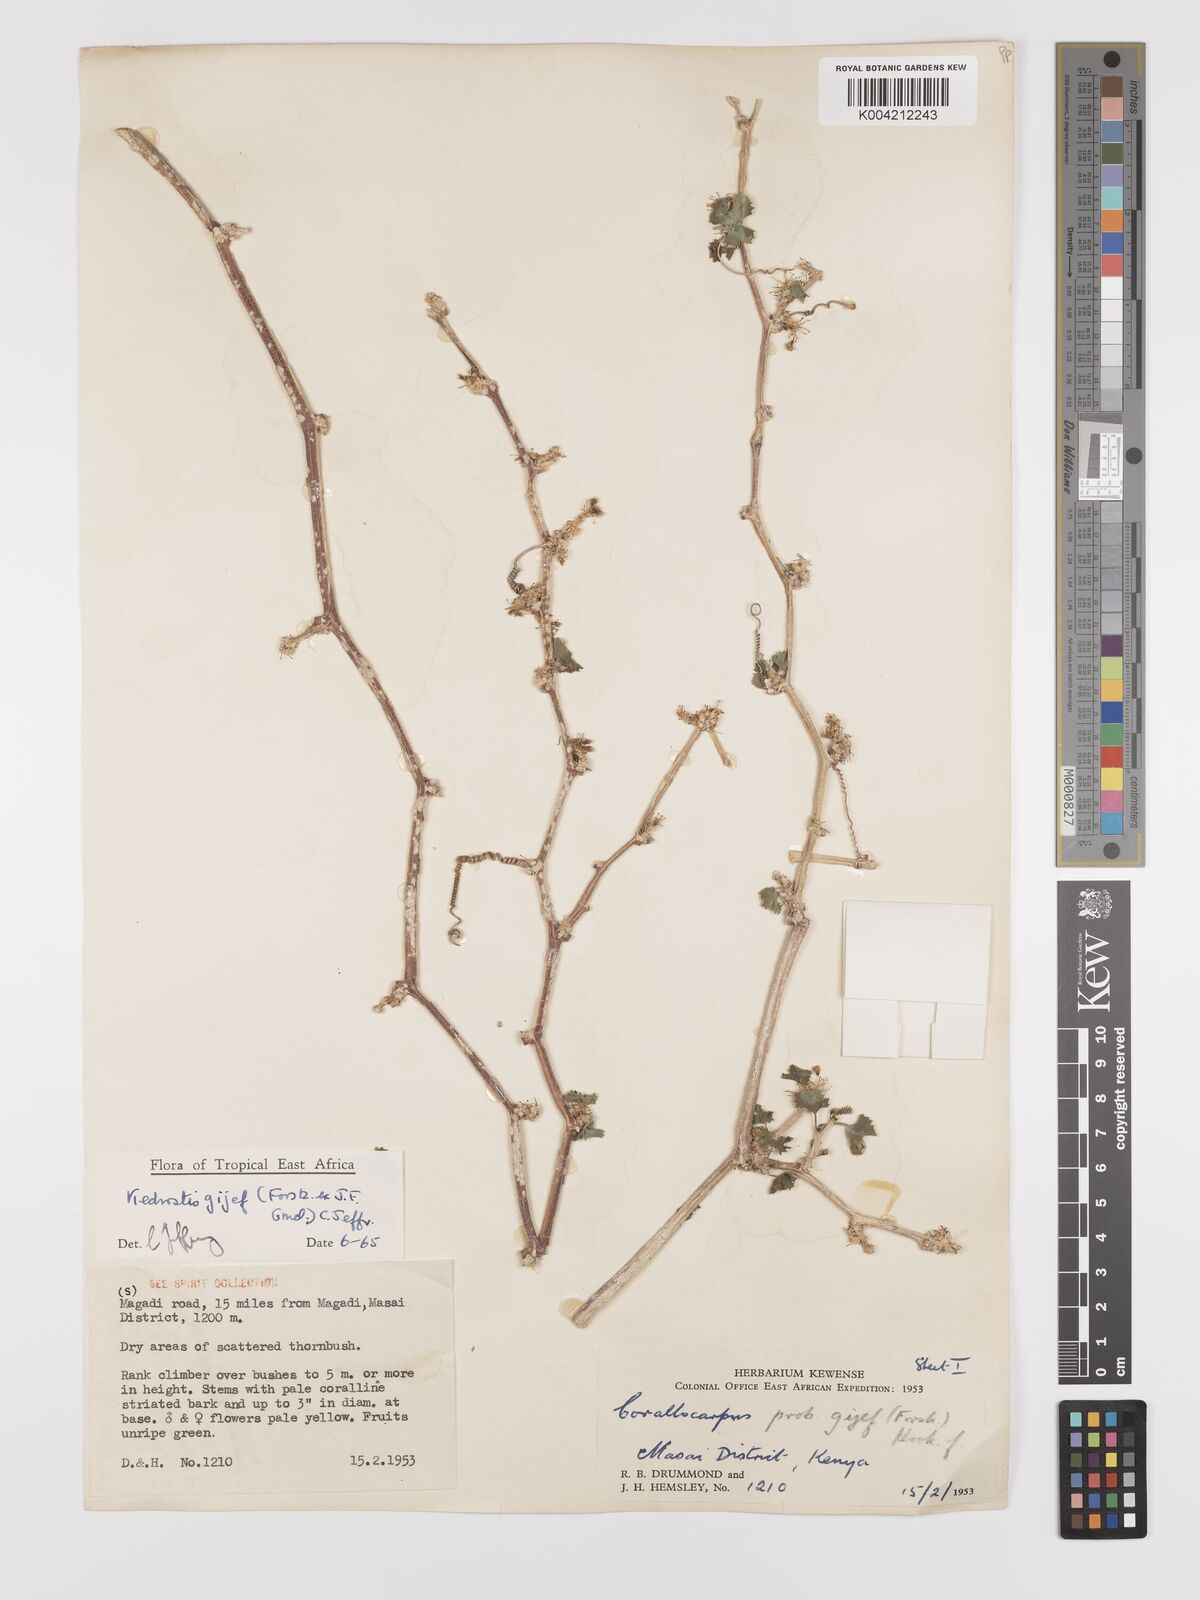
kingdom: Plantae
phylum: Tracheophyta
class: Magnoliopsida
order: Cucurbitales
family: Cucurbitaceae
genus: Kedrostis
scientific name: Kedrostis gijef
